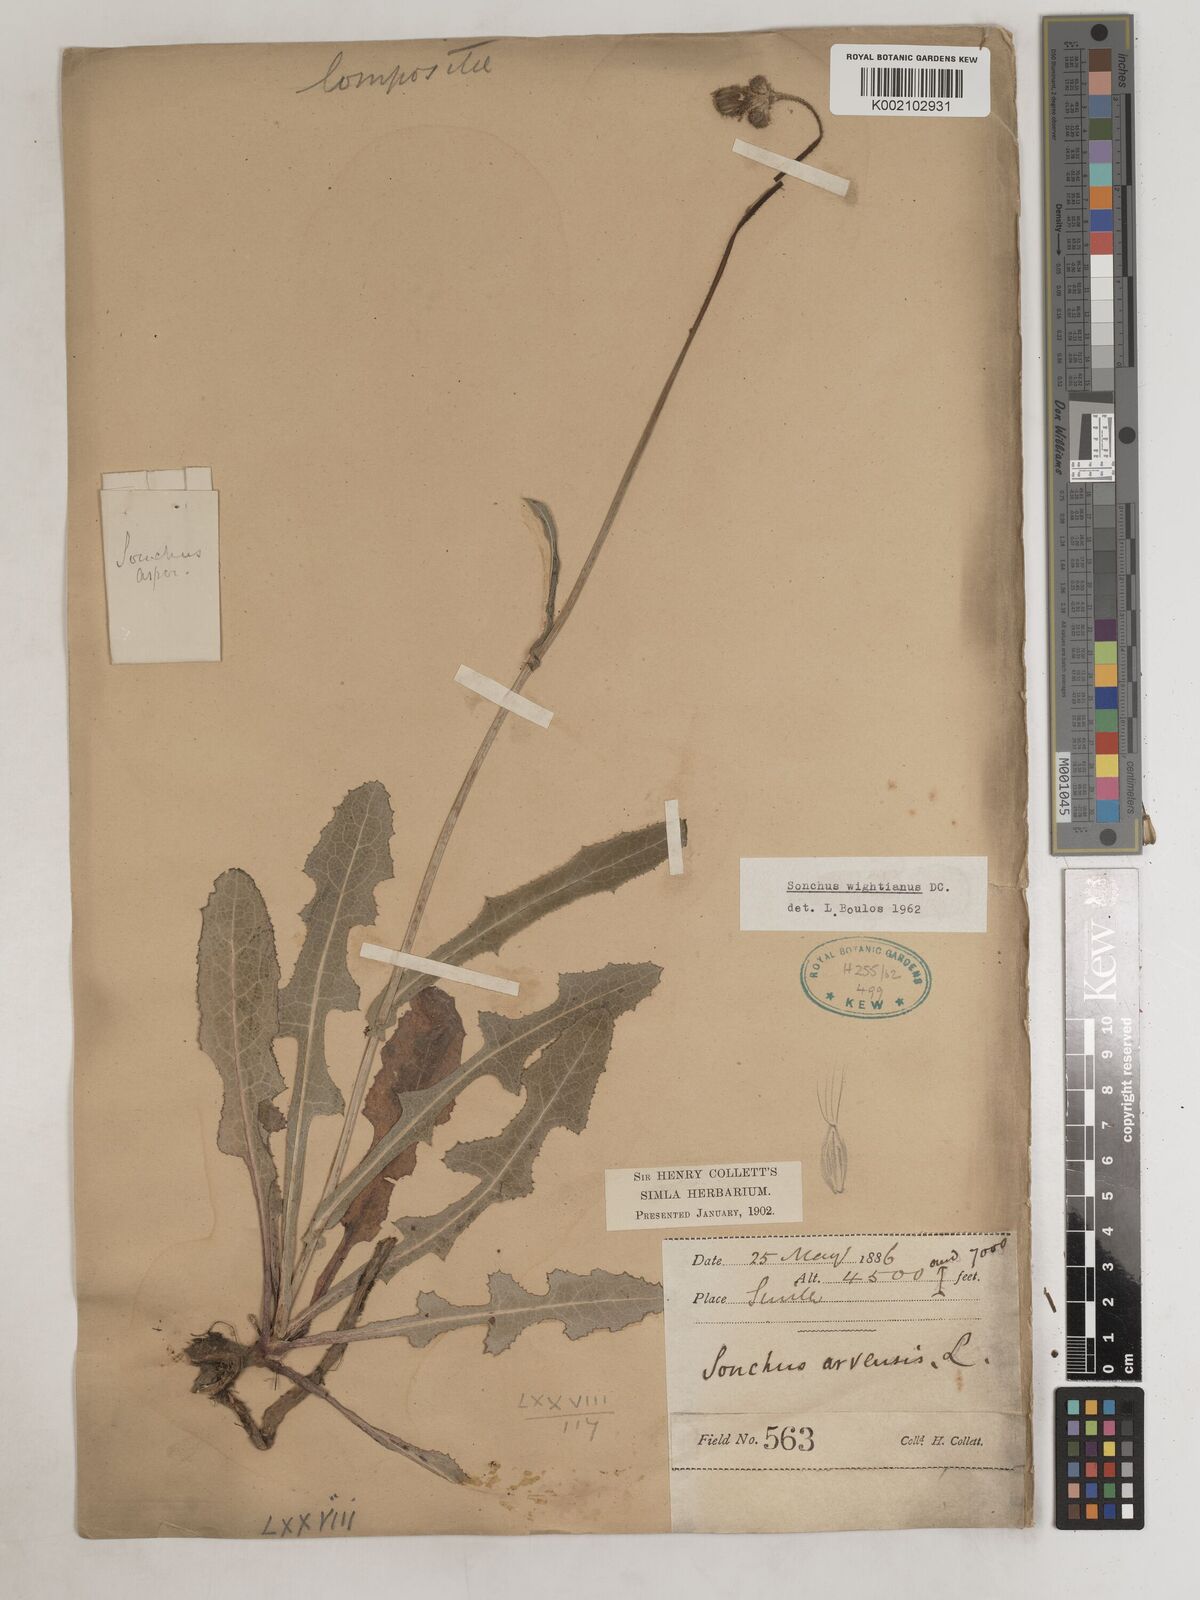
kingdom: Plantae
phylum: Tracheophyta
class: Magnoliopsida
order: Asterales
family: Asteraceae
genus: Sonchus
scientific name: Sonchus arvensis
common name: Perennial sow-thistle
